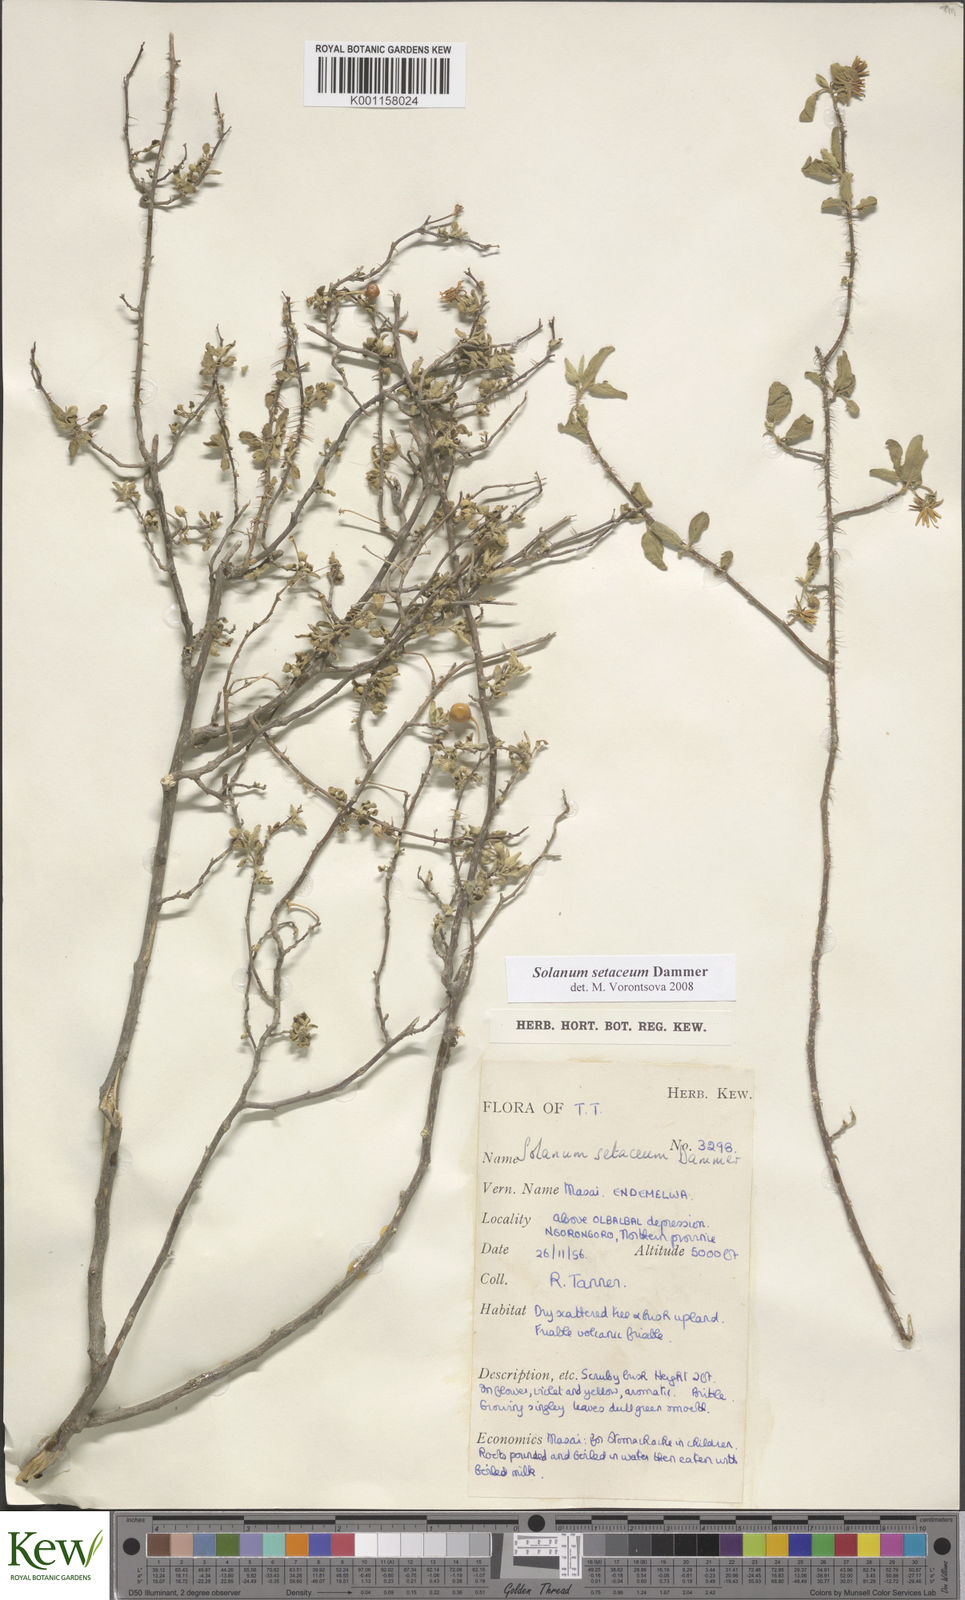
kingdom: Plantae
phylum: Tracheophyta
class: Magnoliopsida
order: Solanales
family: Solanaceae
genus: Solanum
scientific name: Solanum setaceum
